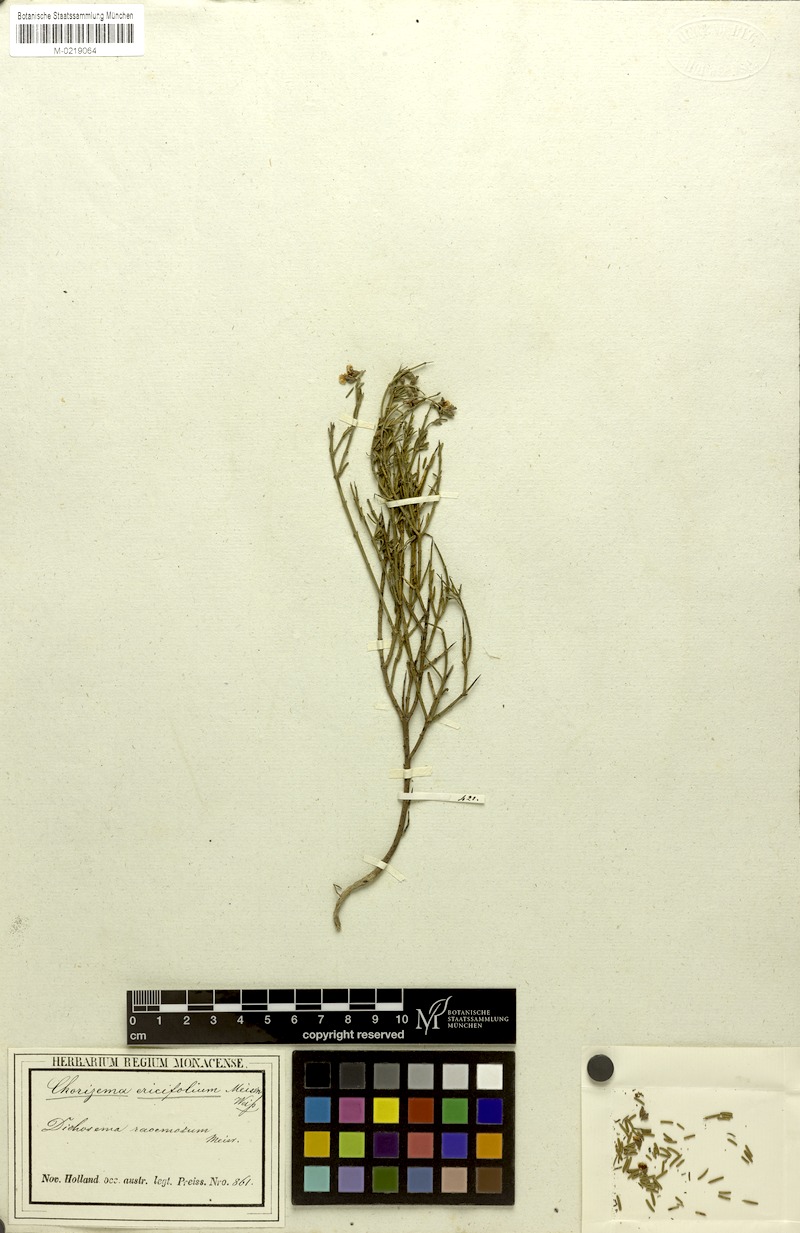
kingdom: Plantae
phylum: Tracheophyta
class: Magnoliopsida
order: Fabales
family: Fabaceae
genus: Chorizema
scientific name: Chorizema racemosum
